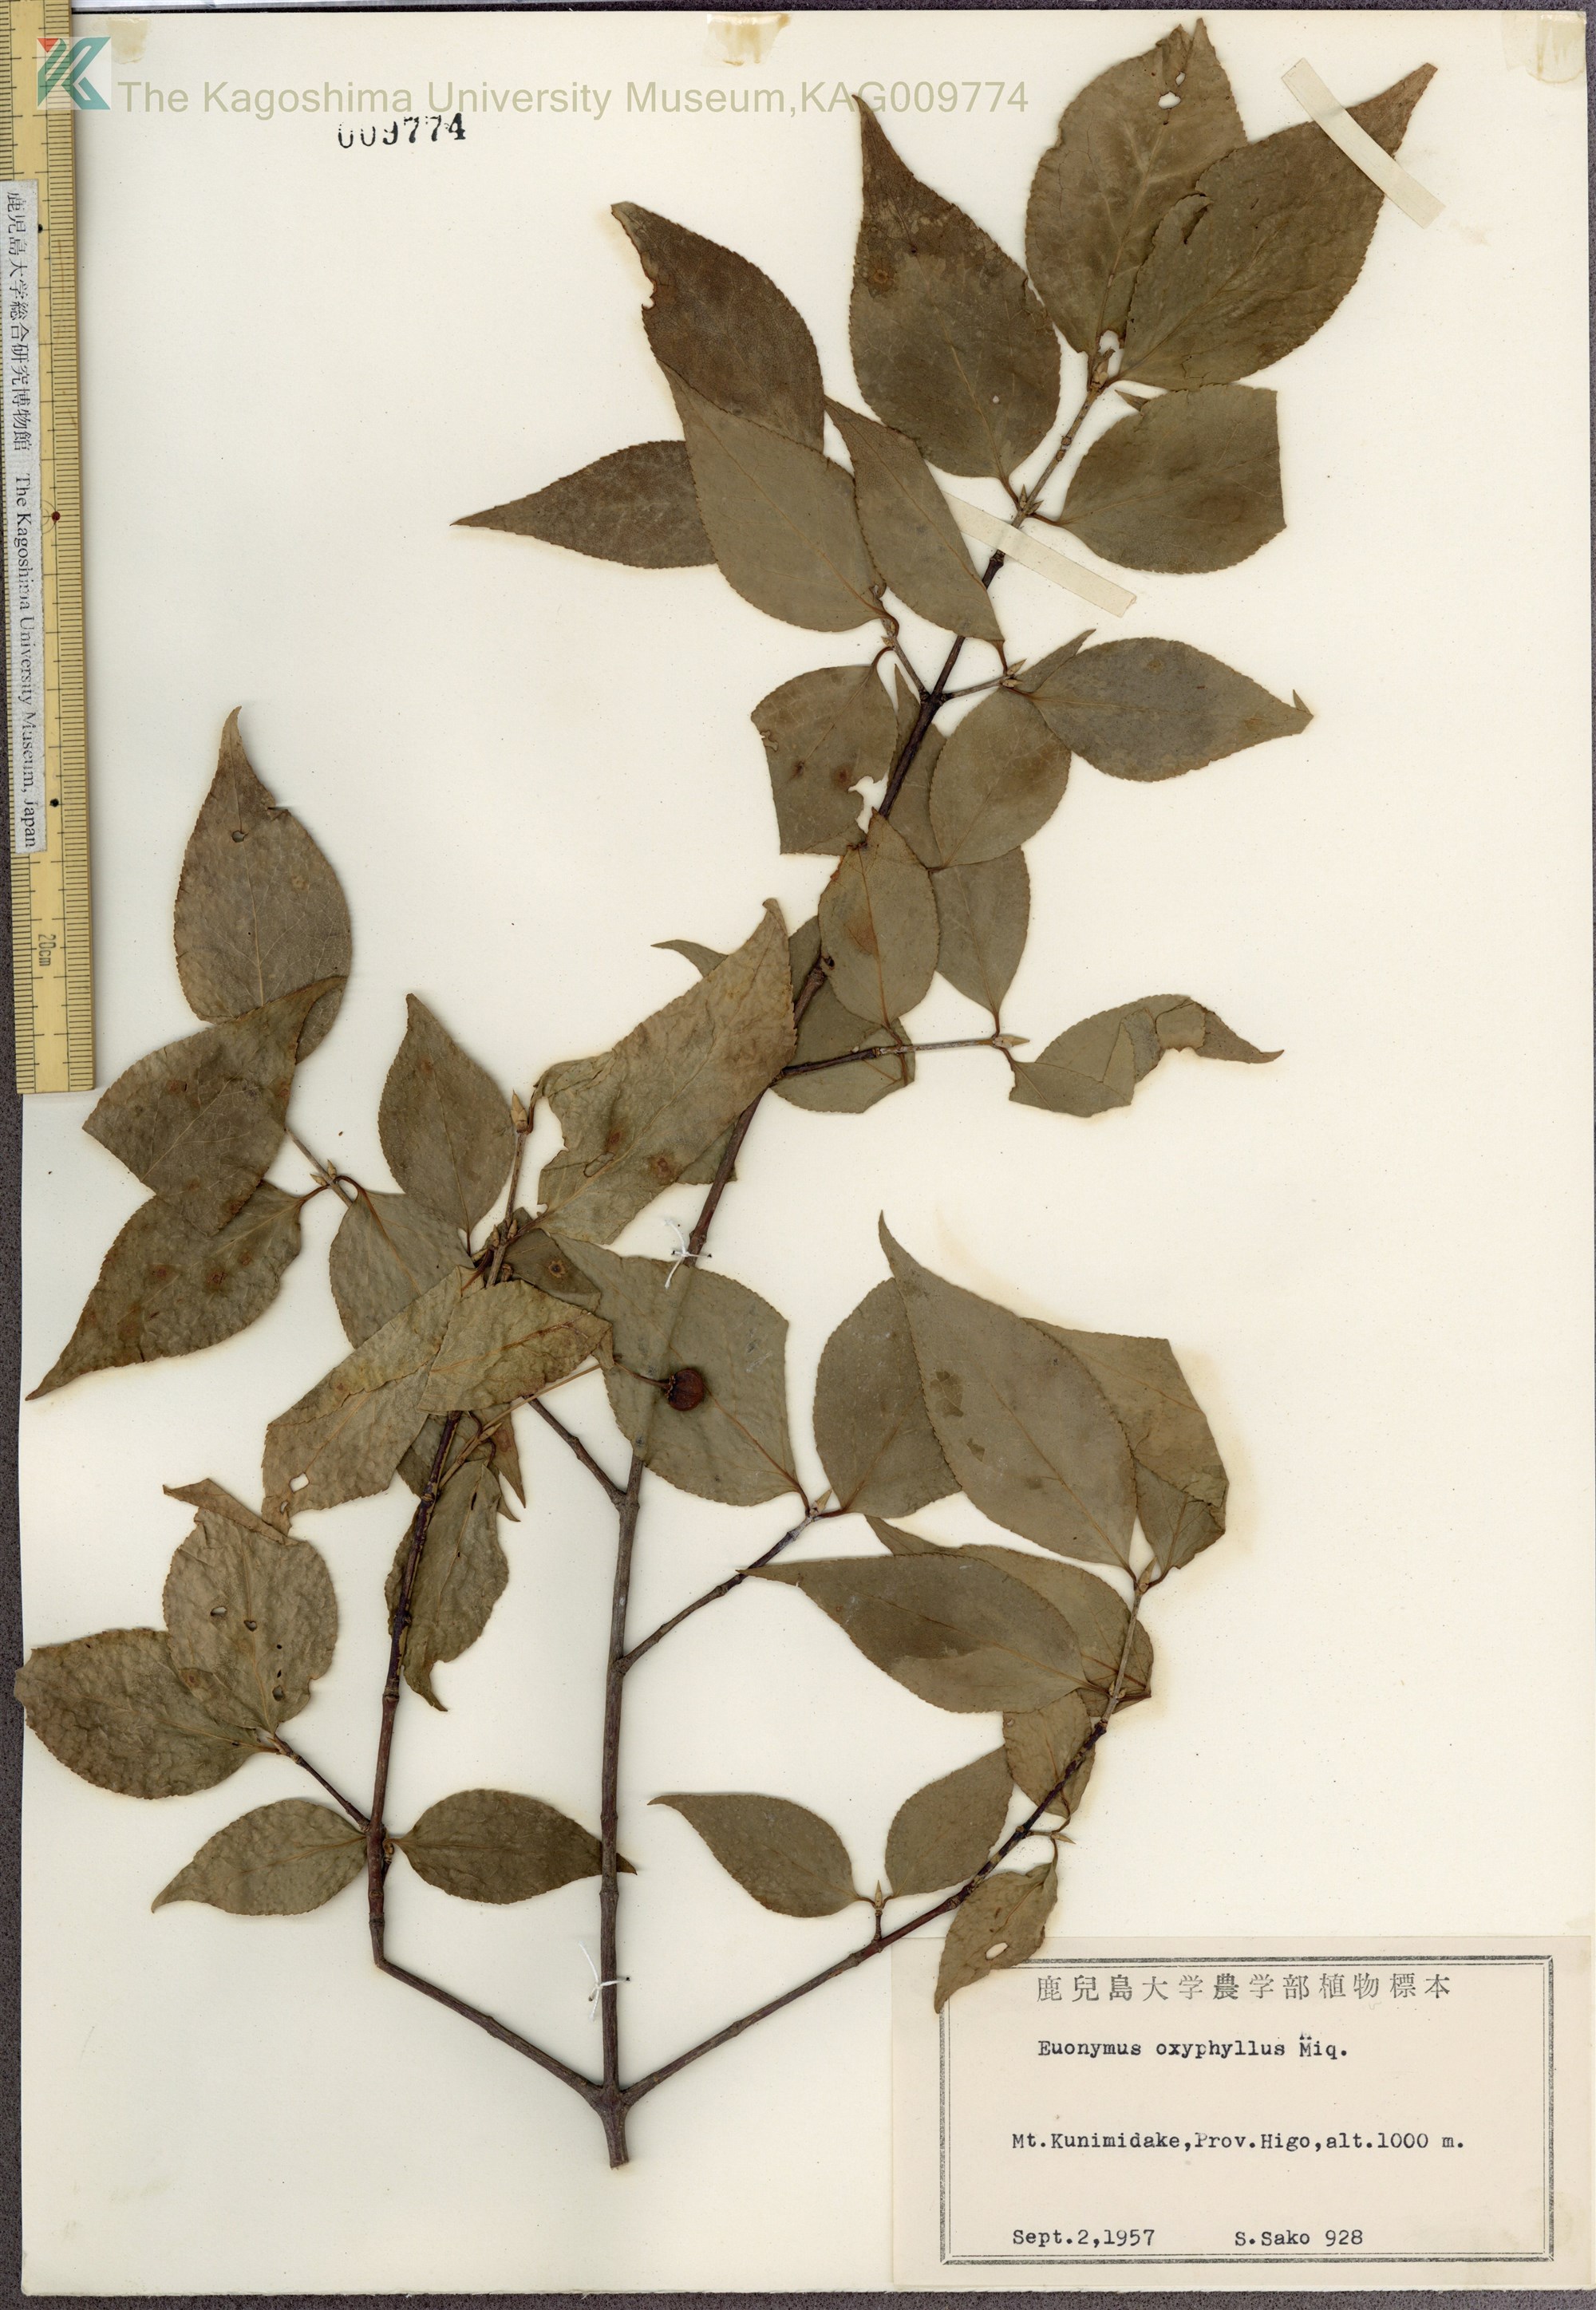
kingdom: Plantae
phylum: Tracheophyta
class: Magnoliopsida
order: Celastrales
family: Celastraceae
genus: Euonymus
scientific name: Euonymus oxyphyllus
